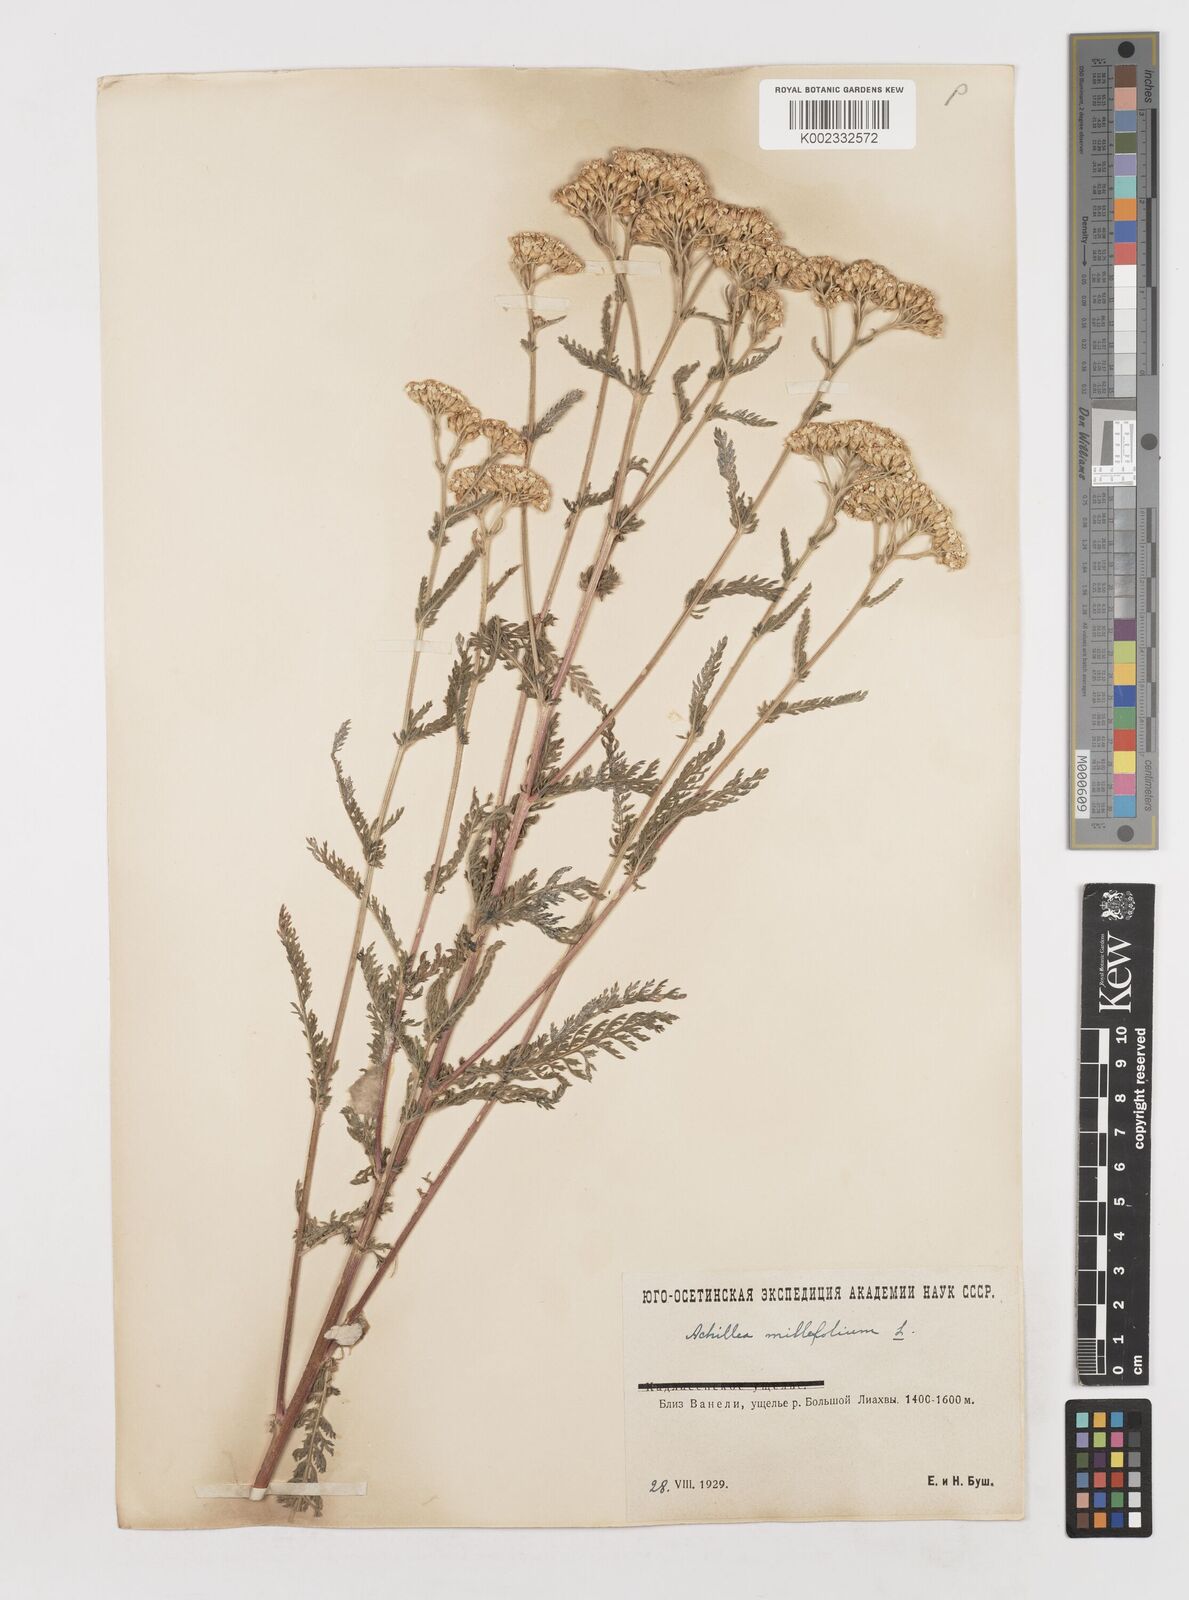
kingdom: Plantae
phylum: Tracheophyta
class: Magnoliopsida
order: Asterales
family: Asteraceae
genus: Achillea
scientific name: Achillea millefolium
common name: Yarrow
